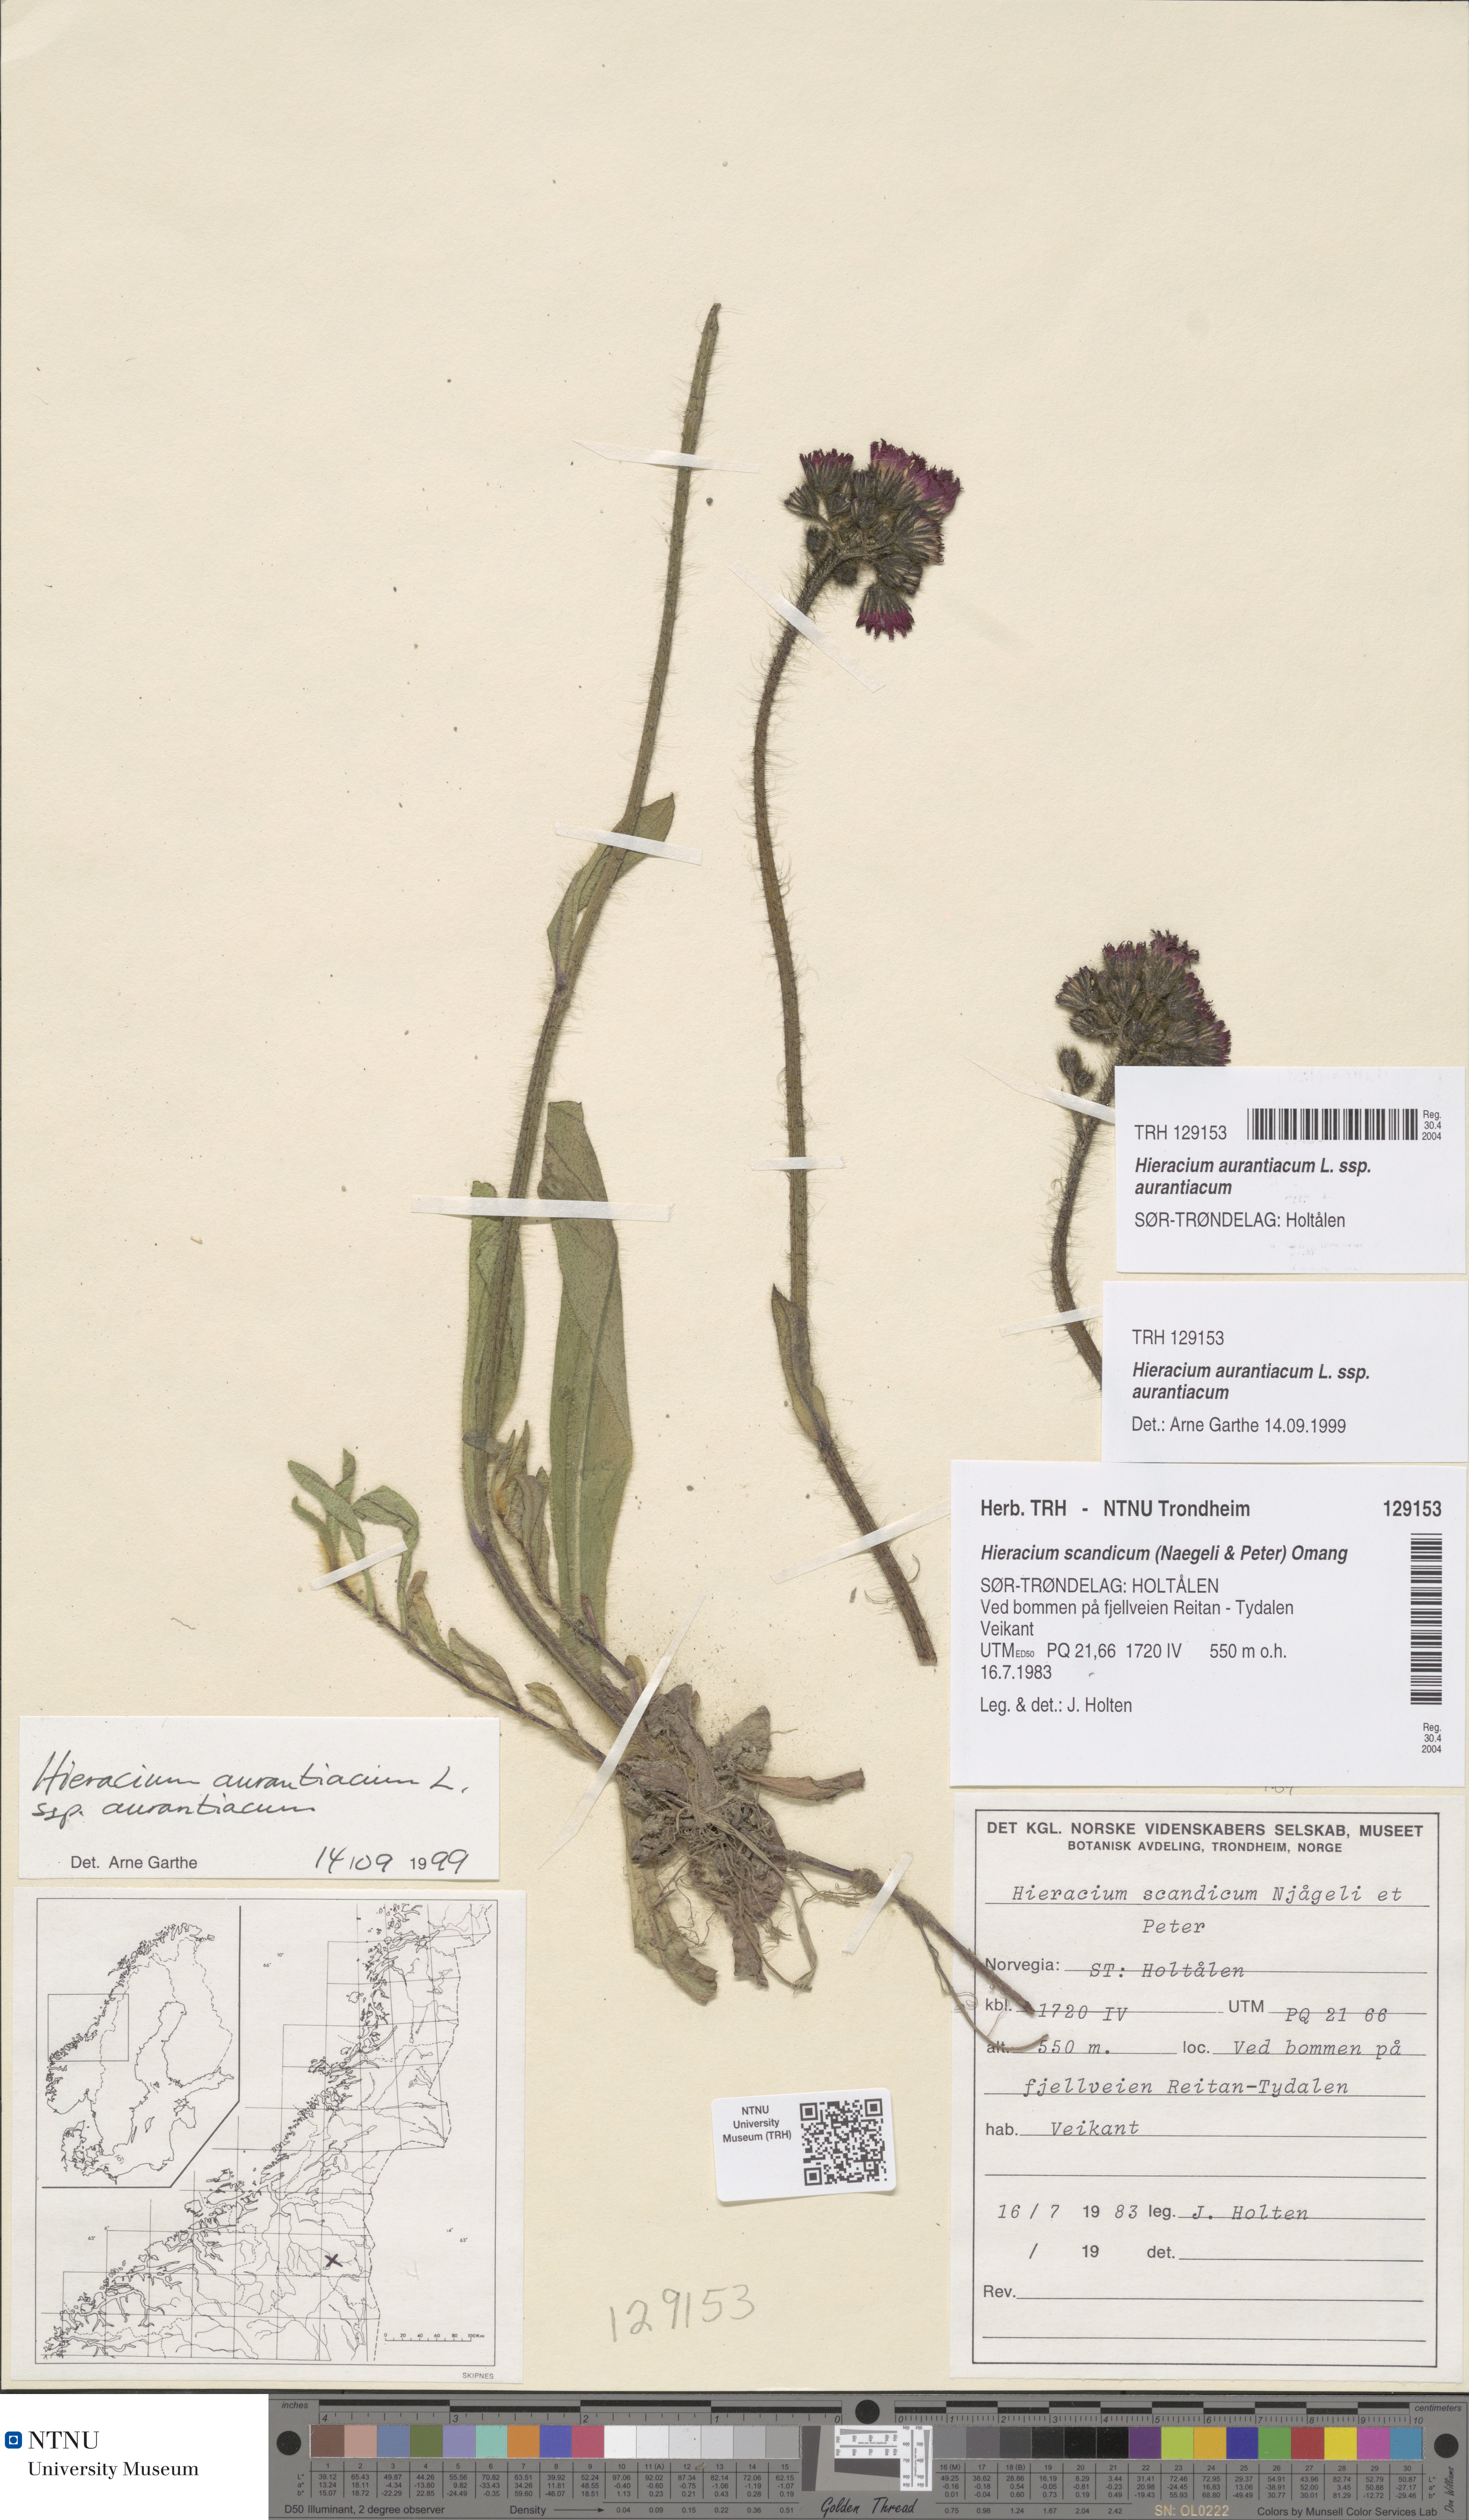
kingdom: Plantae
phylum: Tracheophyta
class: Magnoliopsida
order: Asterales
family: Asteraceae
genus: Pilosella
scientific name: Pilosella aurantiaca
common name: Fox-and-cubs
